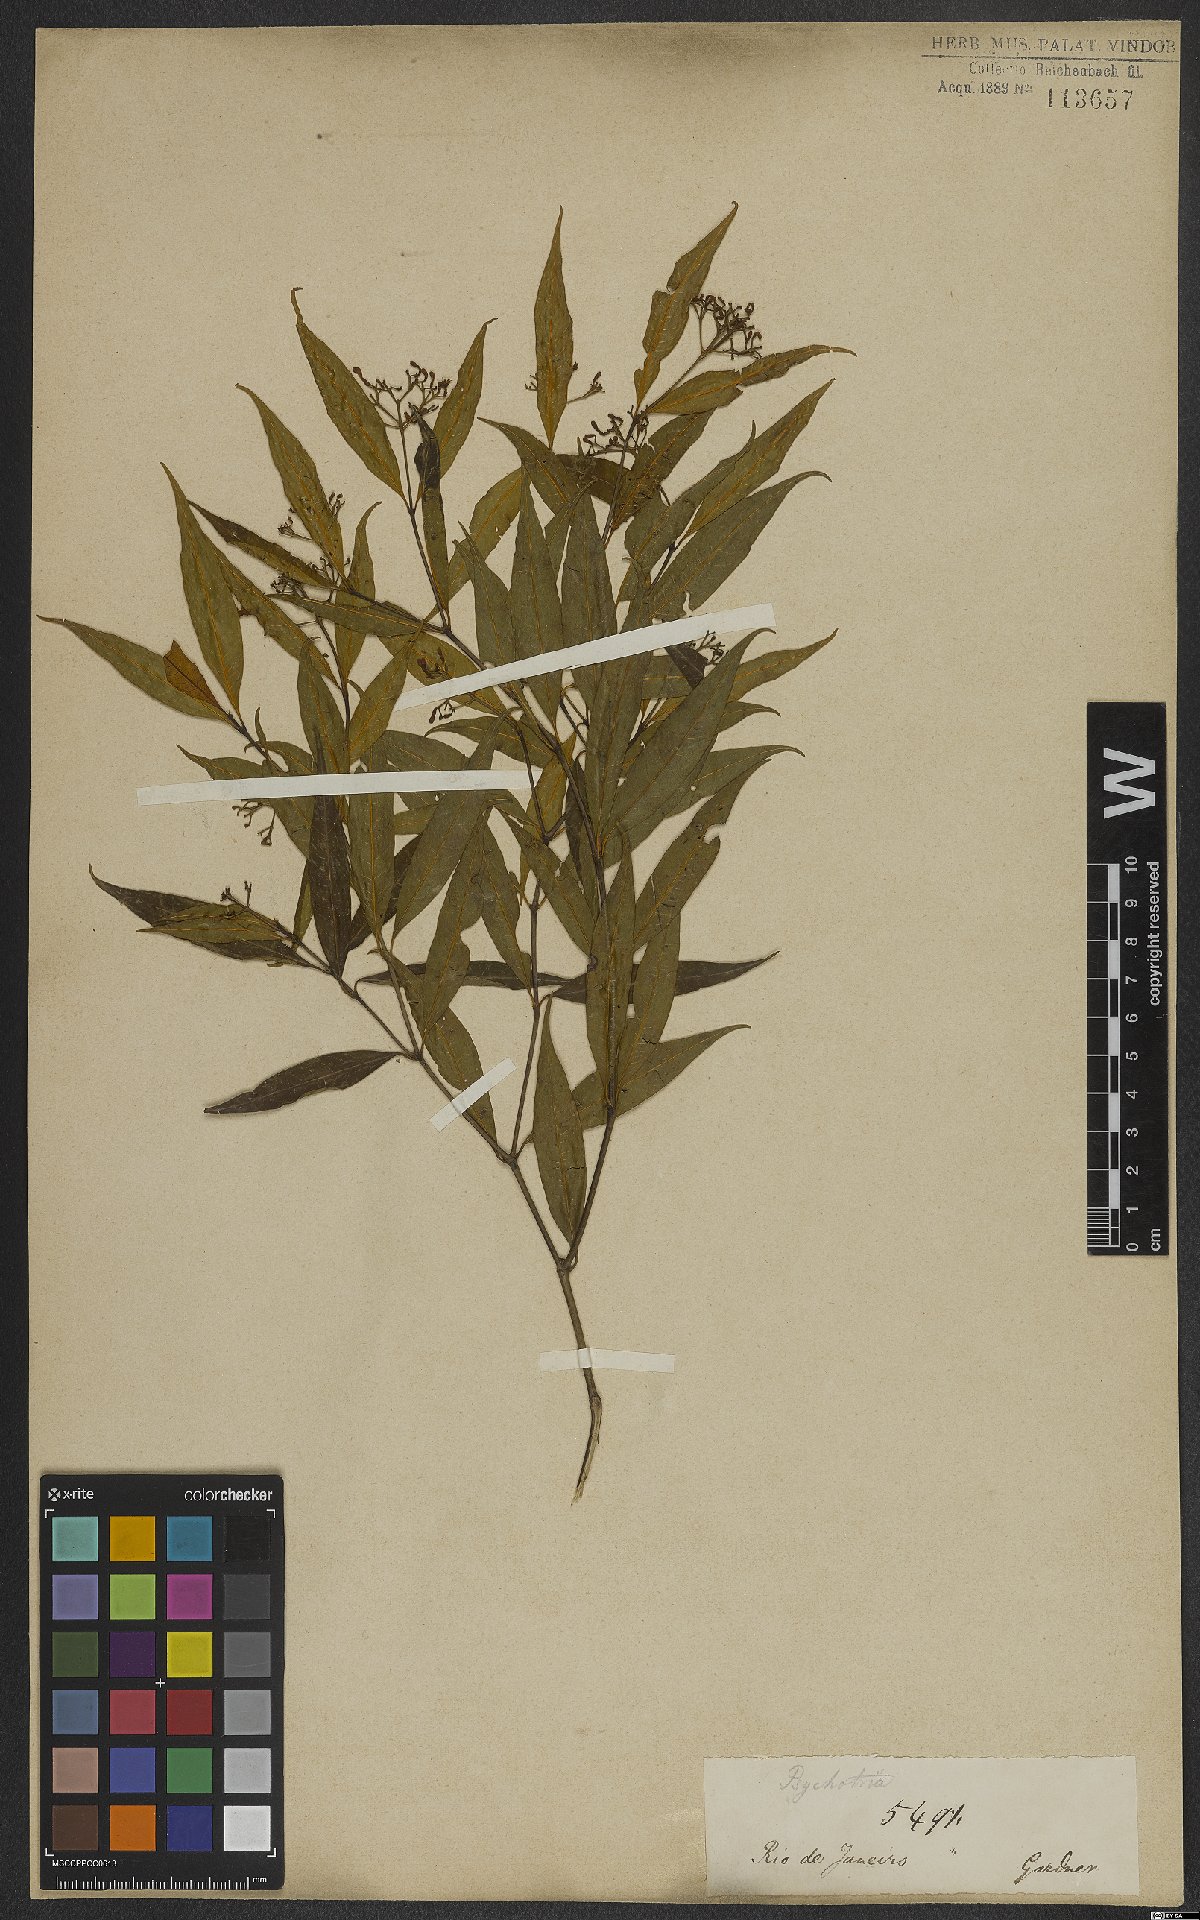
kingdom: Plantae
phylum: Tracheophyta
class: Magnoliopsida
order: Gentianales
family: Rubiaceae
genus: Psychotria
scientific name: Psychotria leiocarpa
